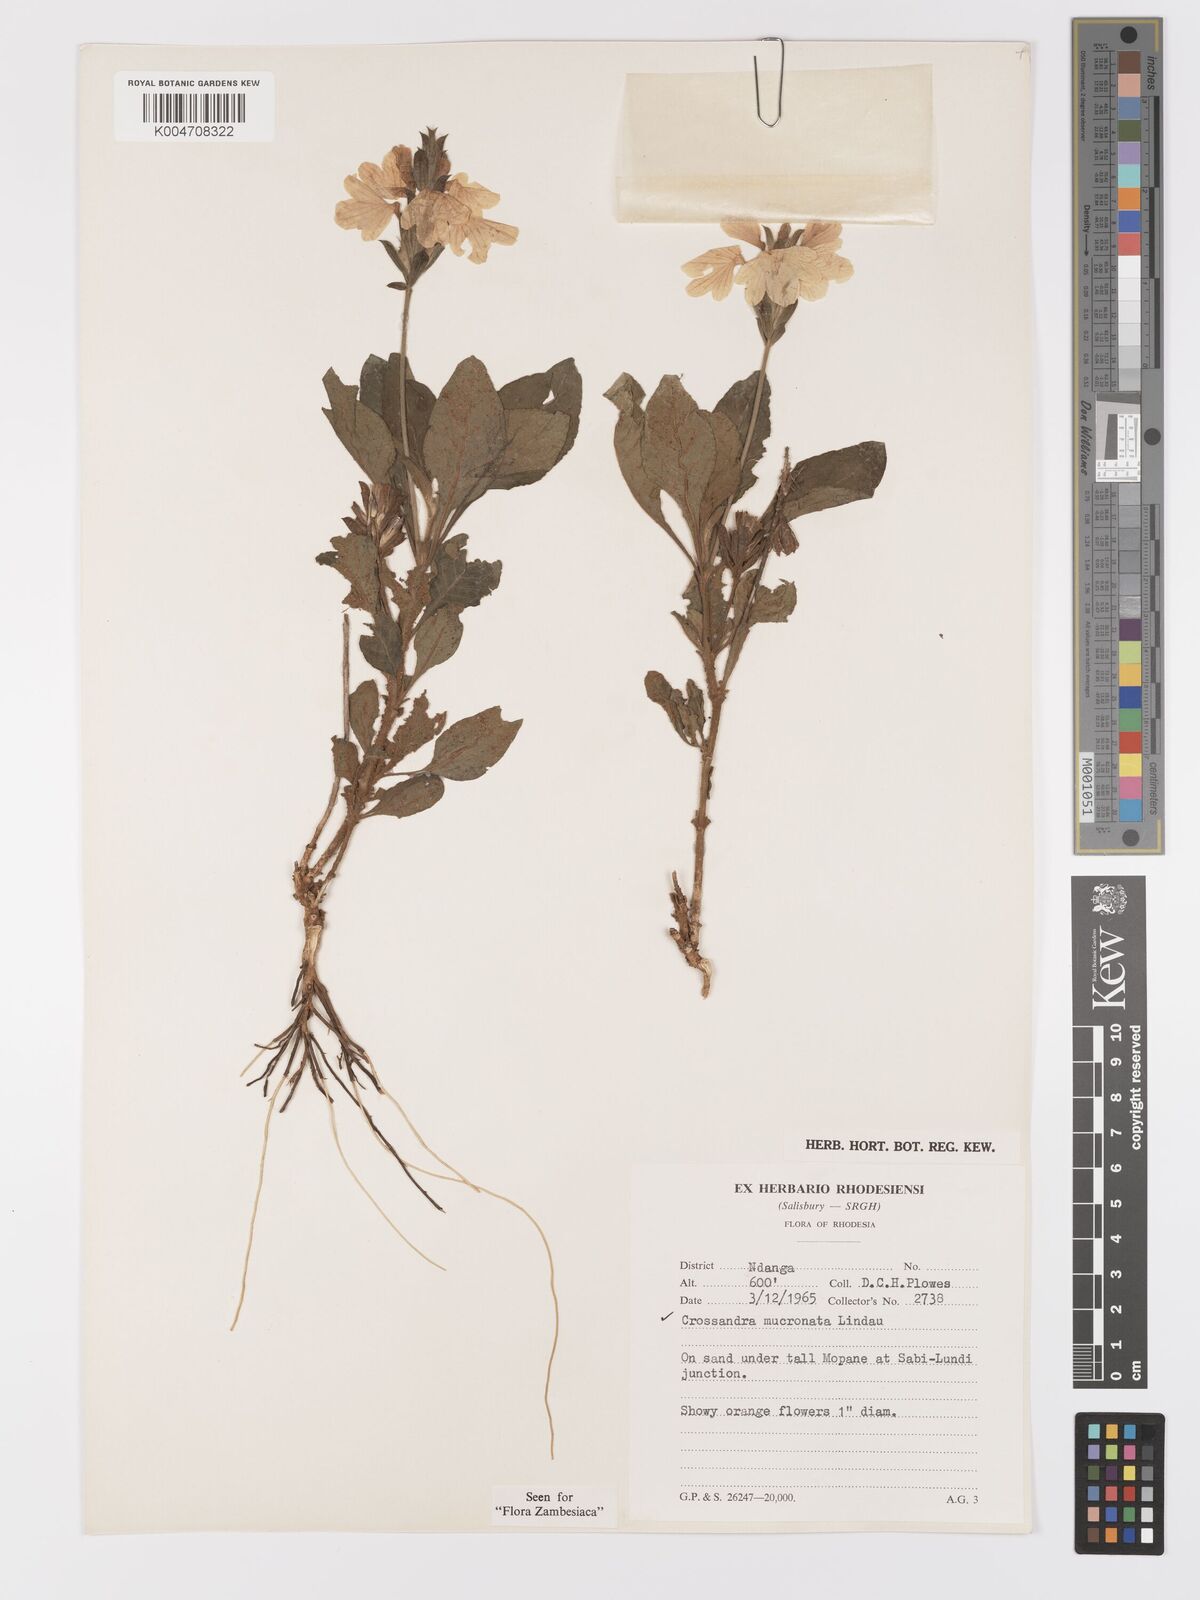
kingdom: Plantae
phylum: Tracheophyta
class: Magnoliopsida
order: Lamiales
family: Acanthaceae
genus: Crossandra
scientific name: Crossandra mucronata
